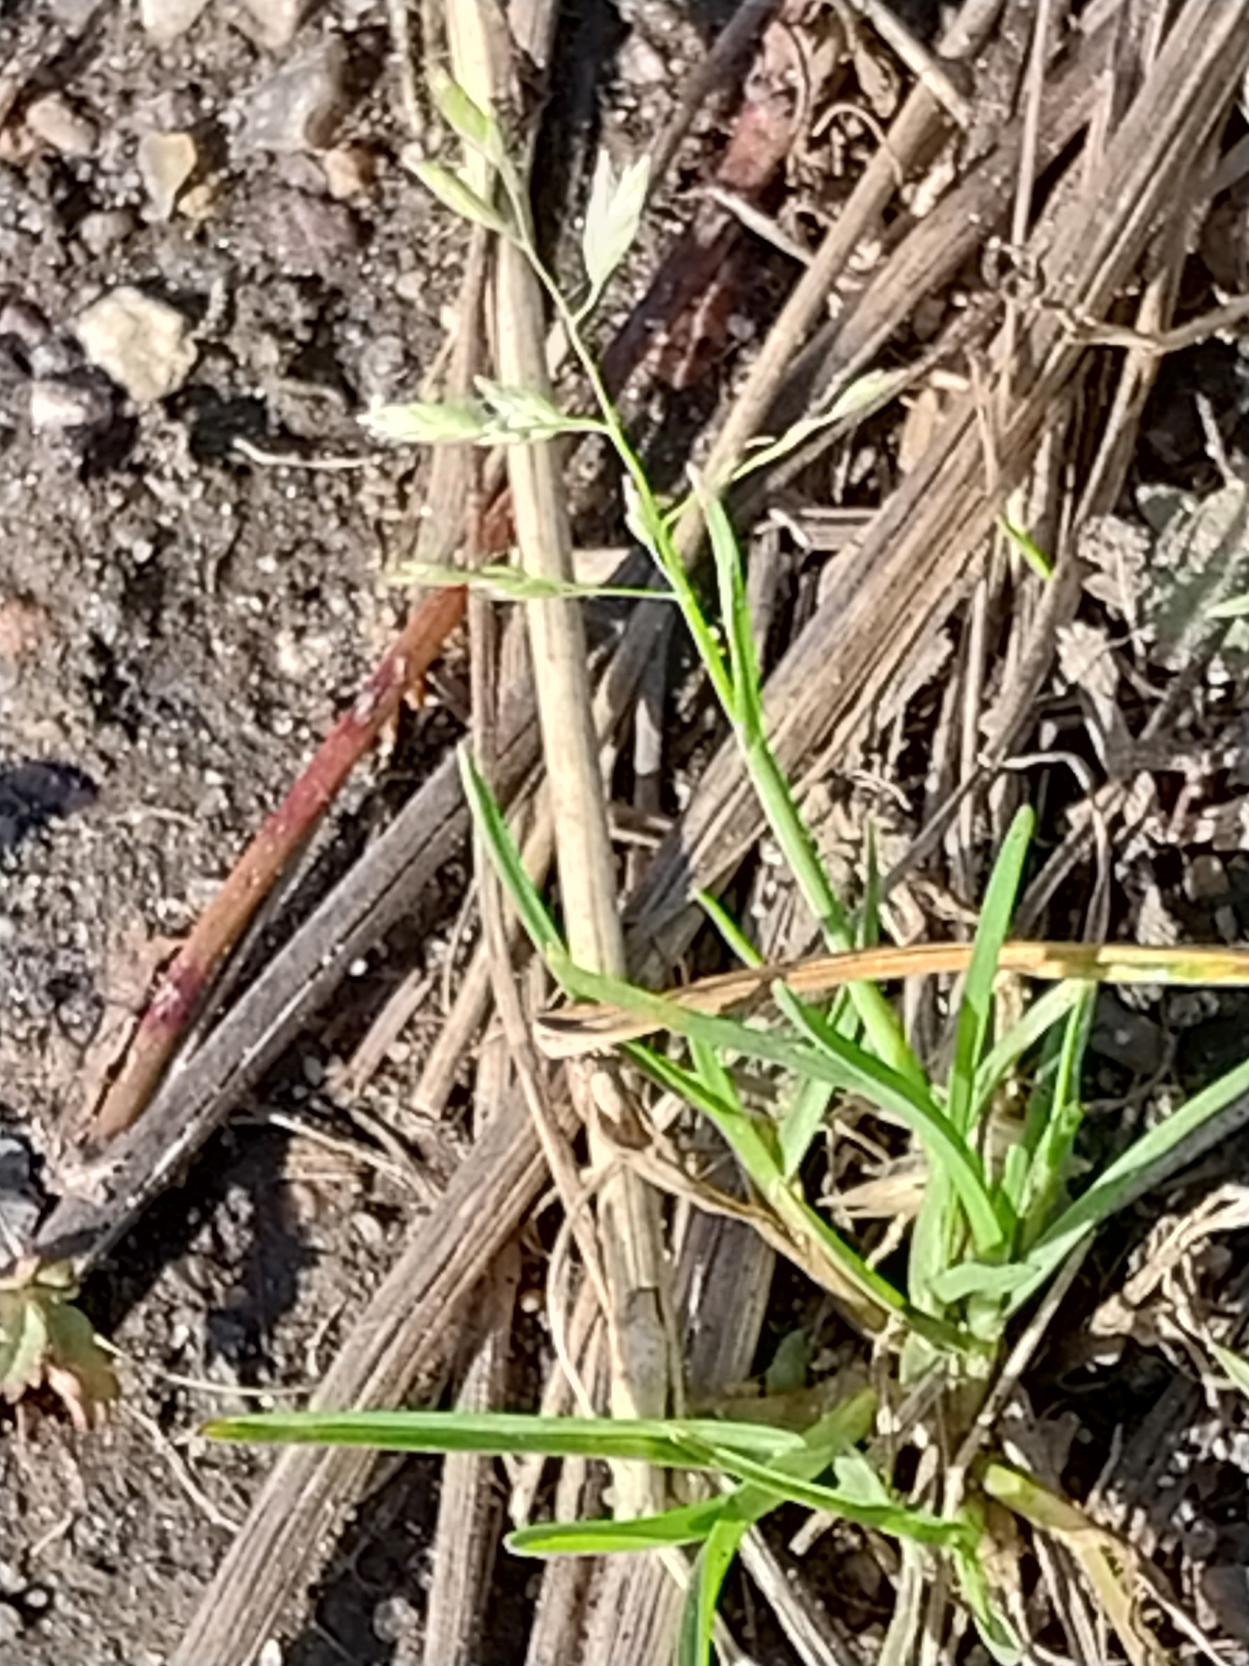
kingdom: Plantae
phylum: Tracheophyta
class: Liliopsida
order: Poales
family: Poaceae
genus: Poa
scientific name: Poa annua
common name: Enårig rapgræs
